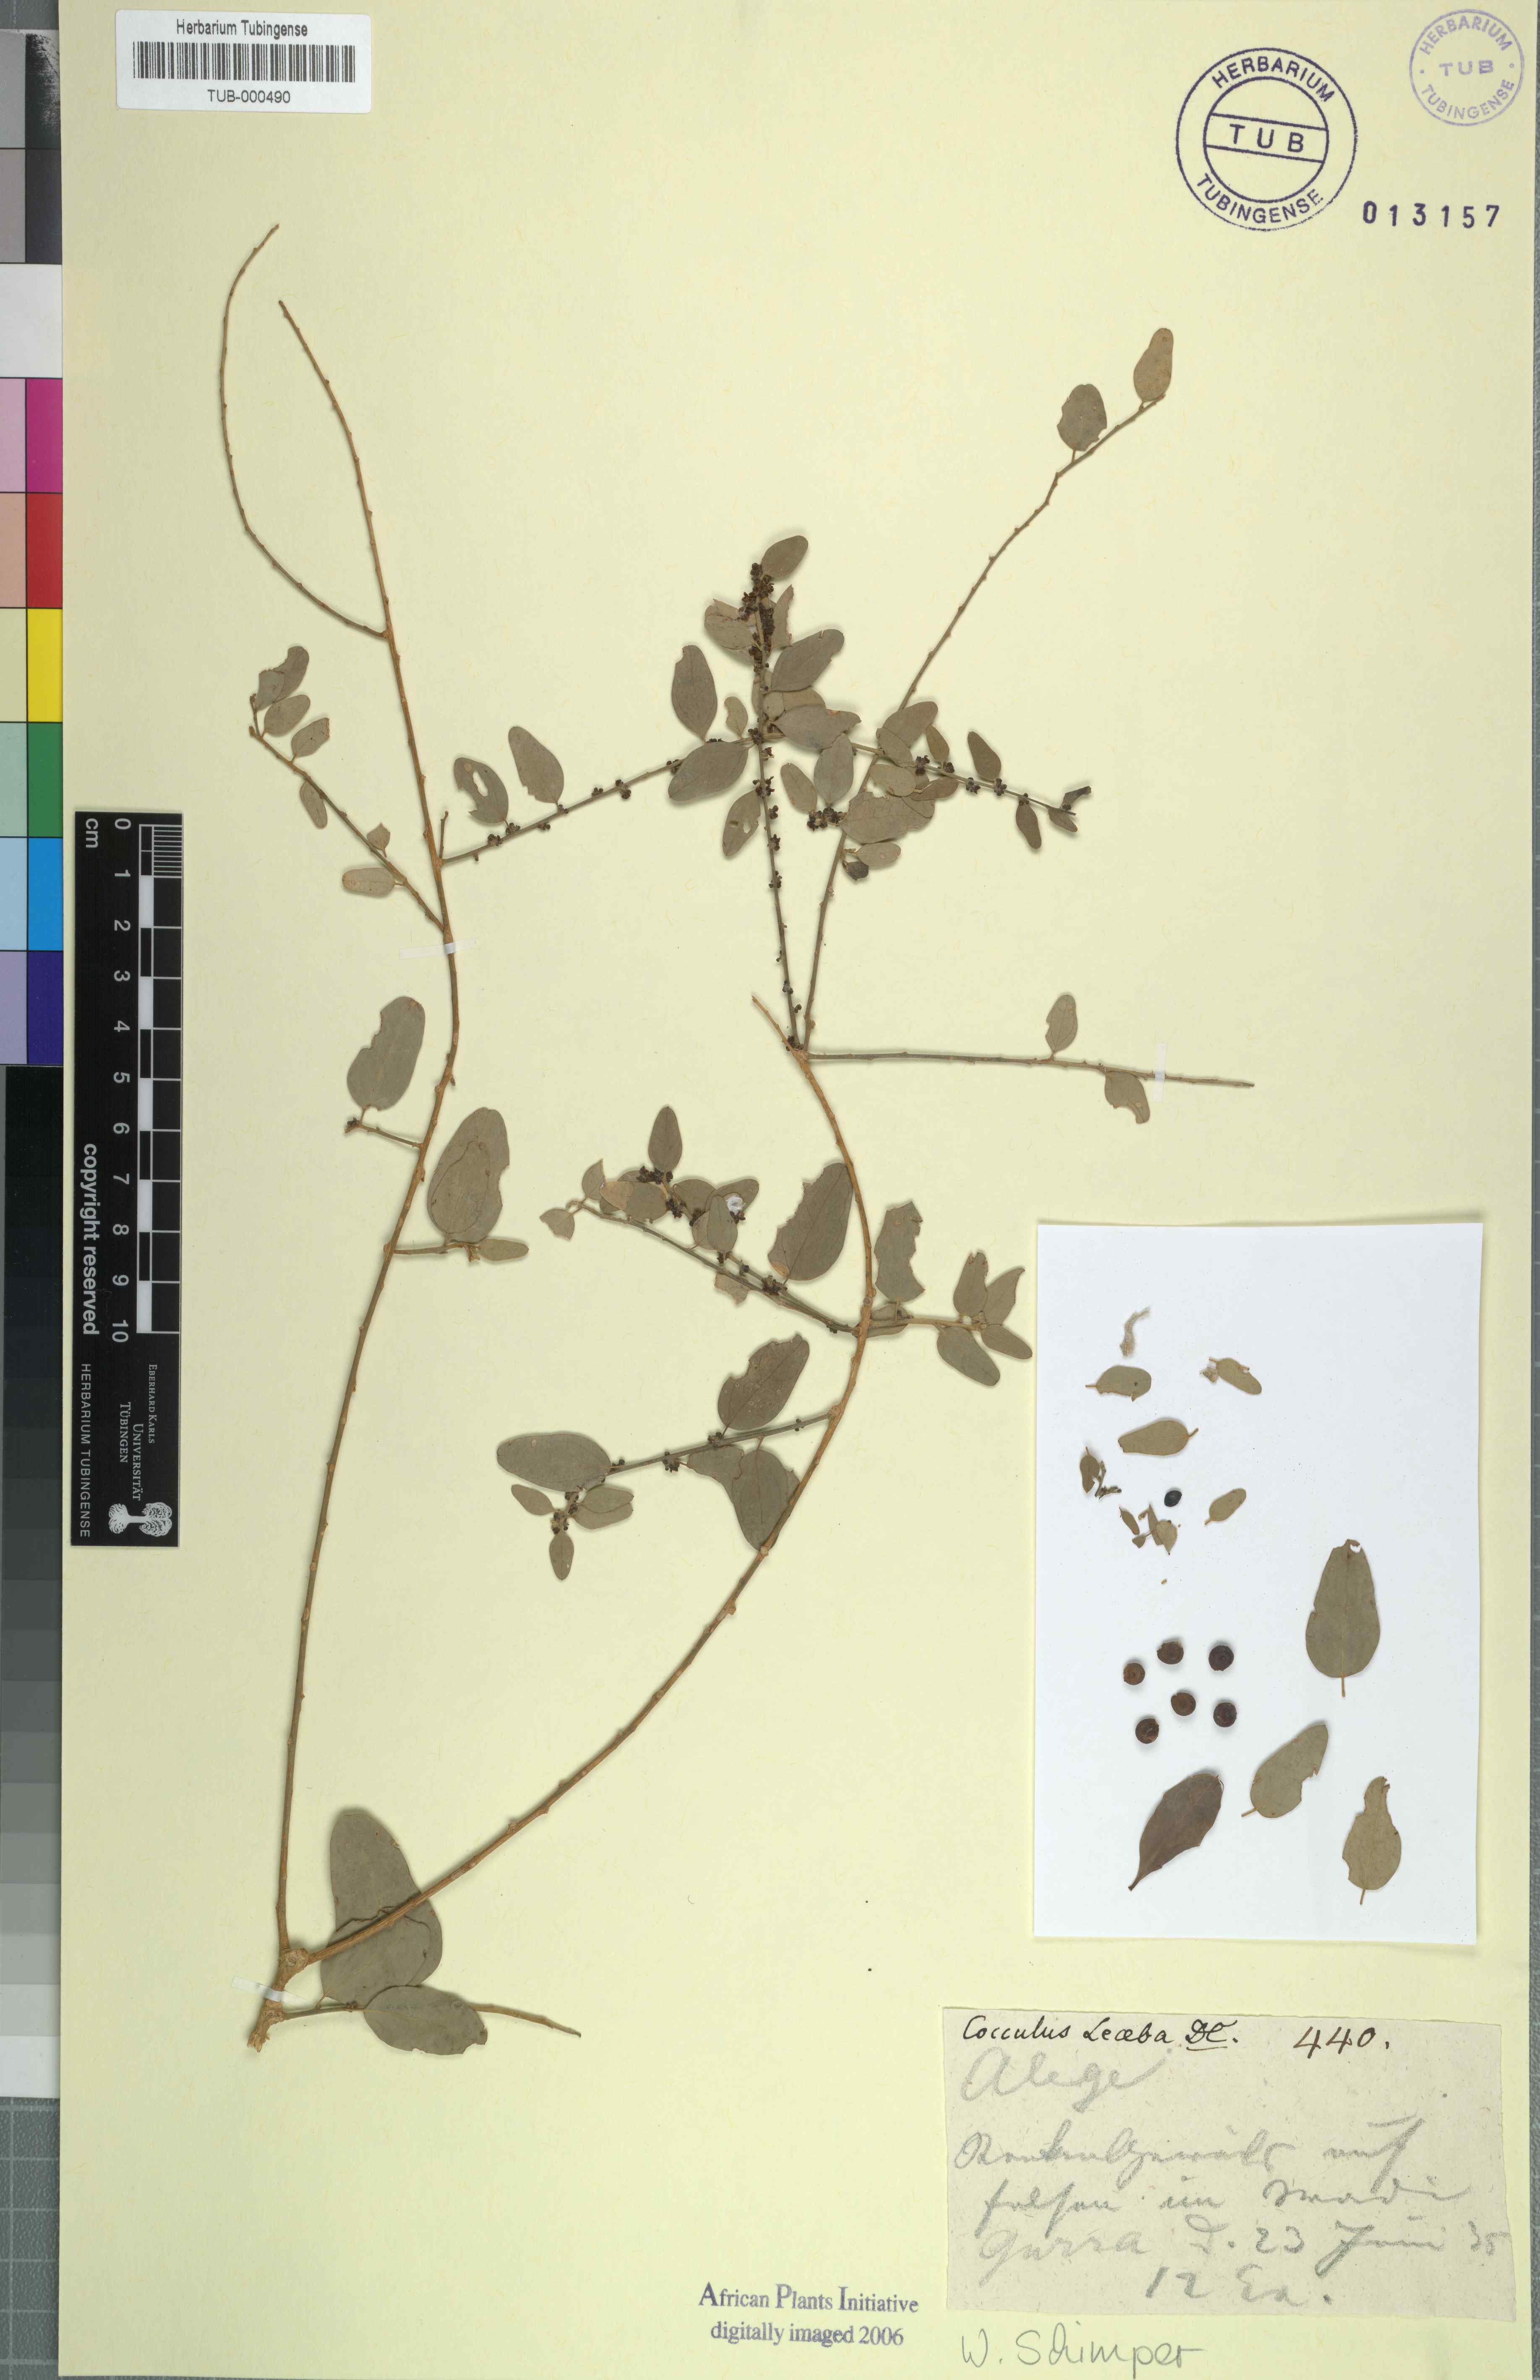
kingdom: Plantae
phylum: Tracheophyta
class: Magnoliopsida
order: Ranunculales
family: Menispermaceae
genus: Cocculus
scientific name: Cocculus pendulus
